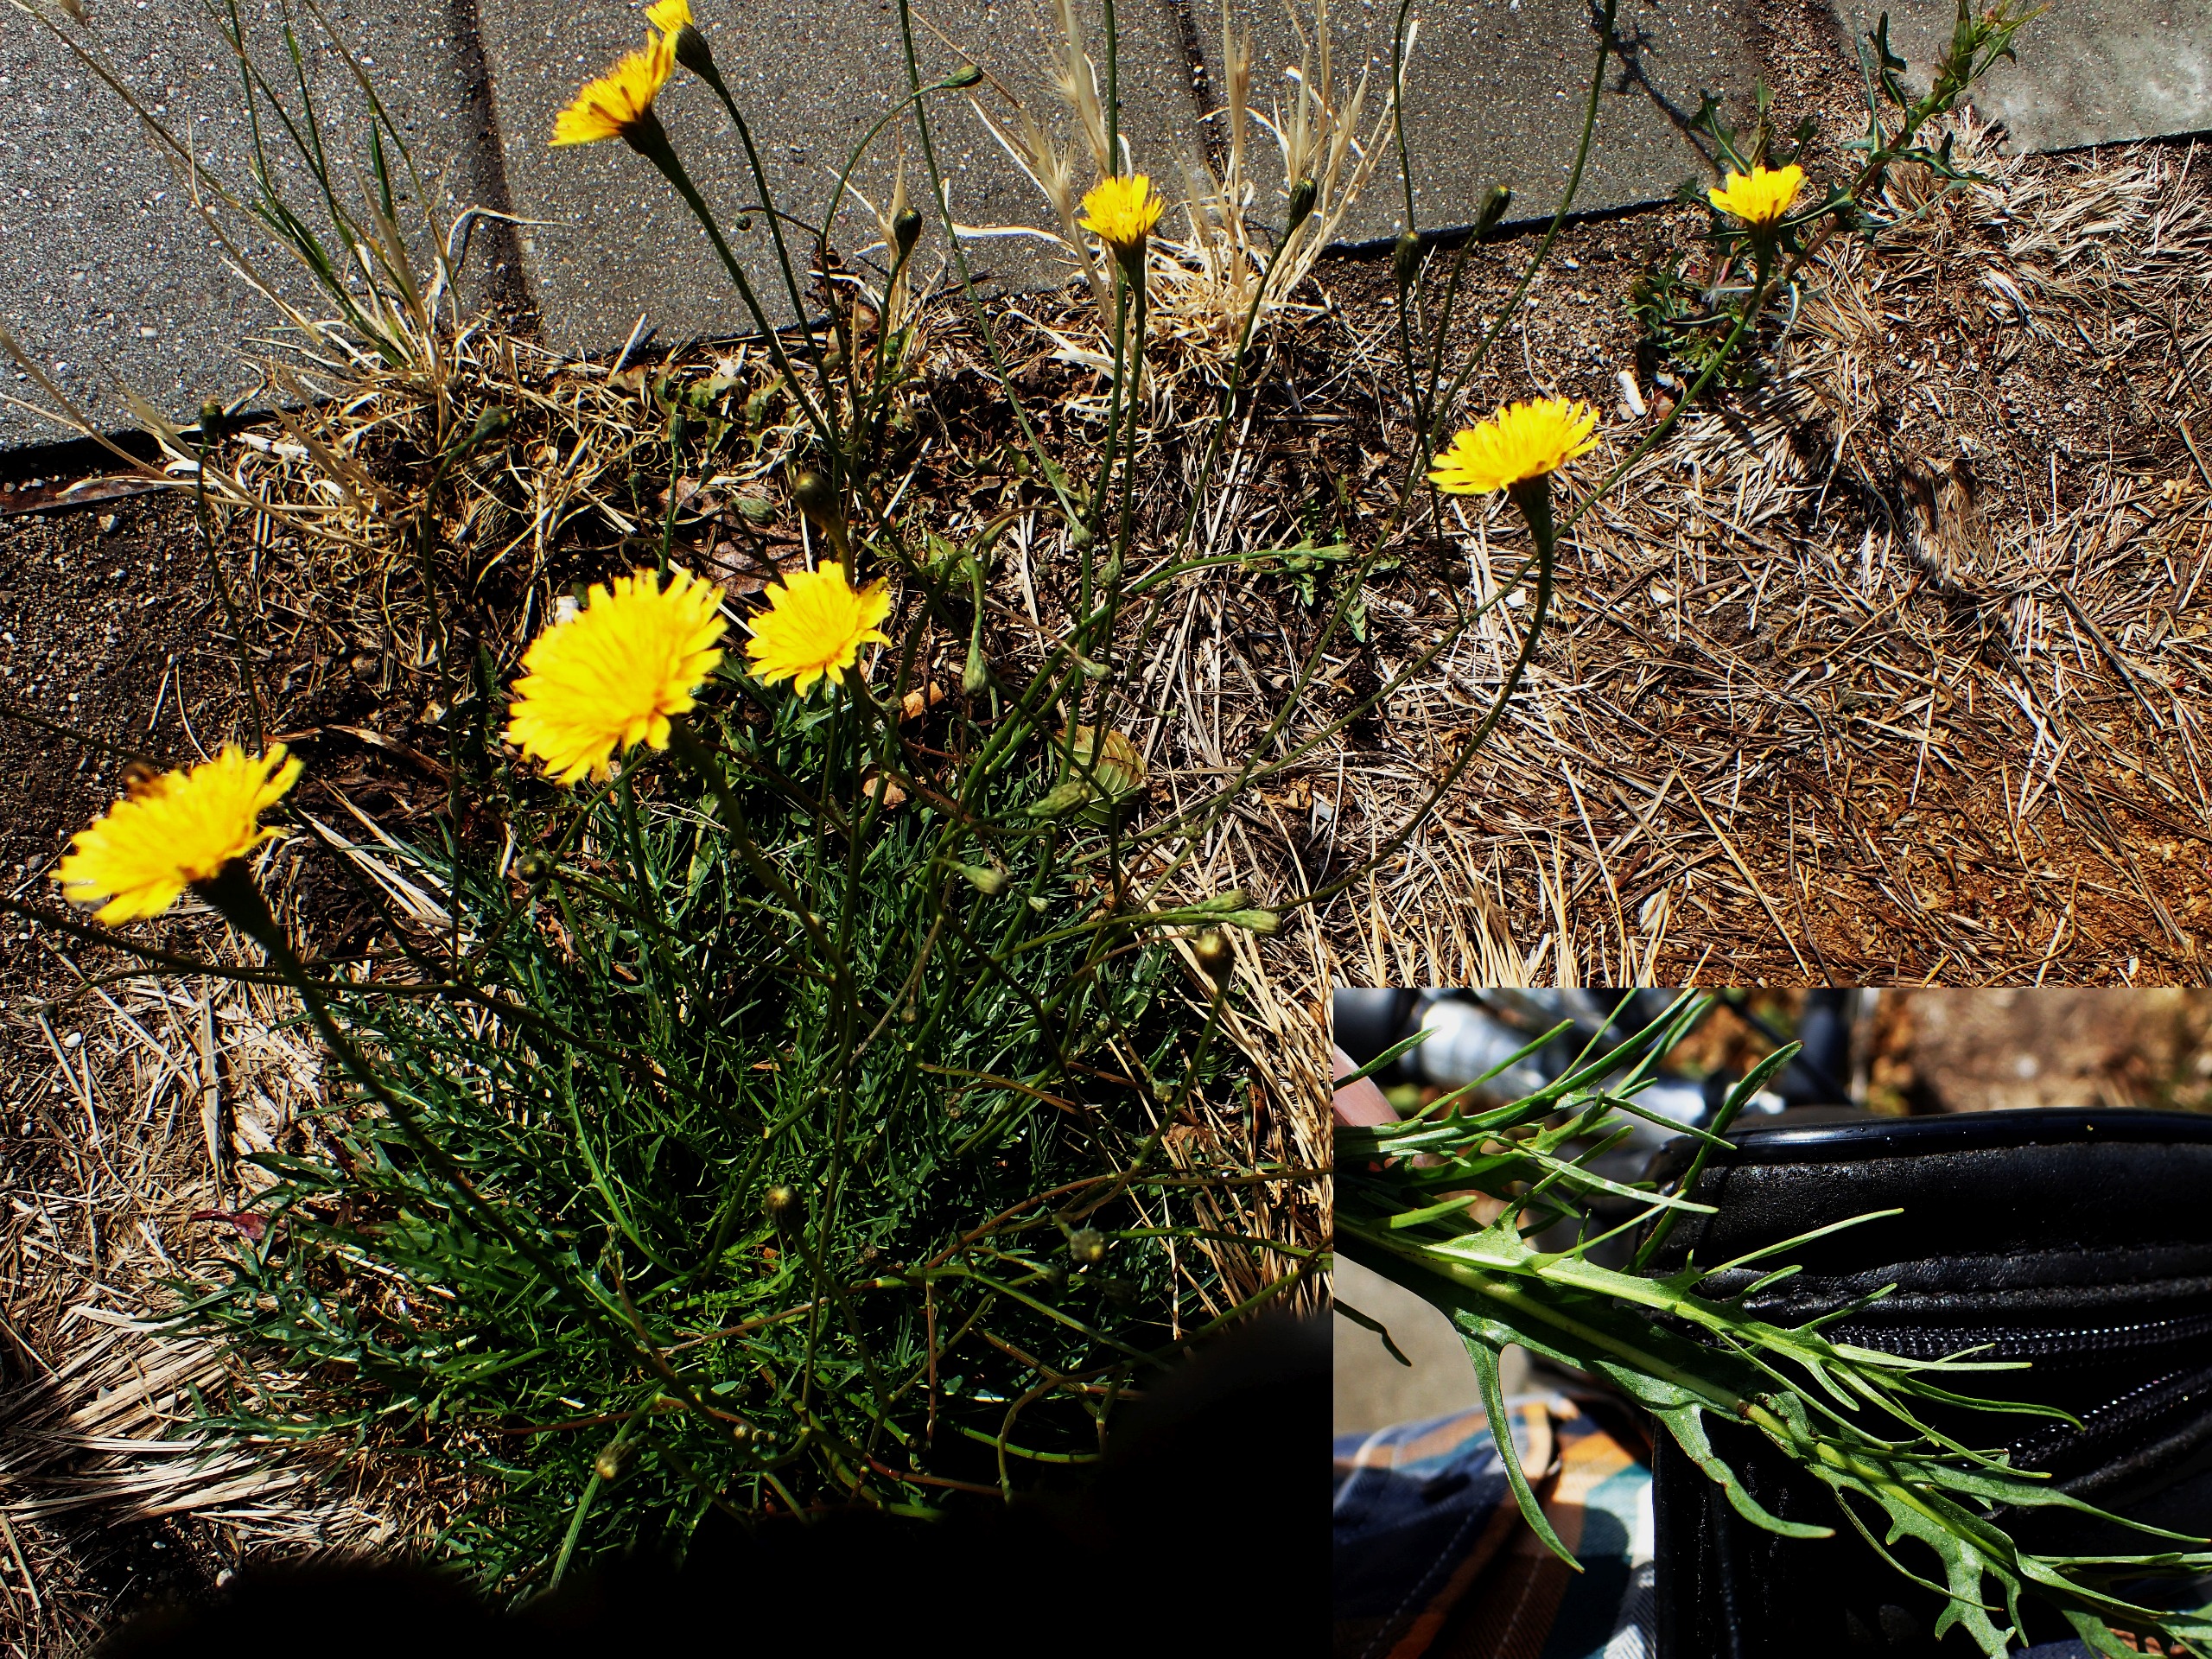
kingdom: Plantae
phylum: Tracheophyta
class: Magnoliopsida
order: Asterales
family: Asteraceae
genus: Scorzoneroides
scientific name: Scorzoneroides autumnalis
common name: Høst-borst
